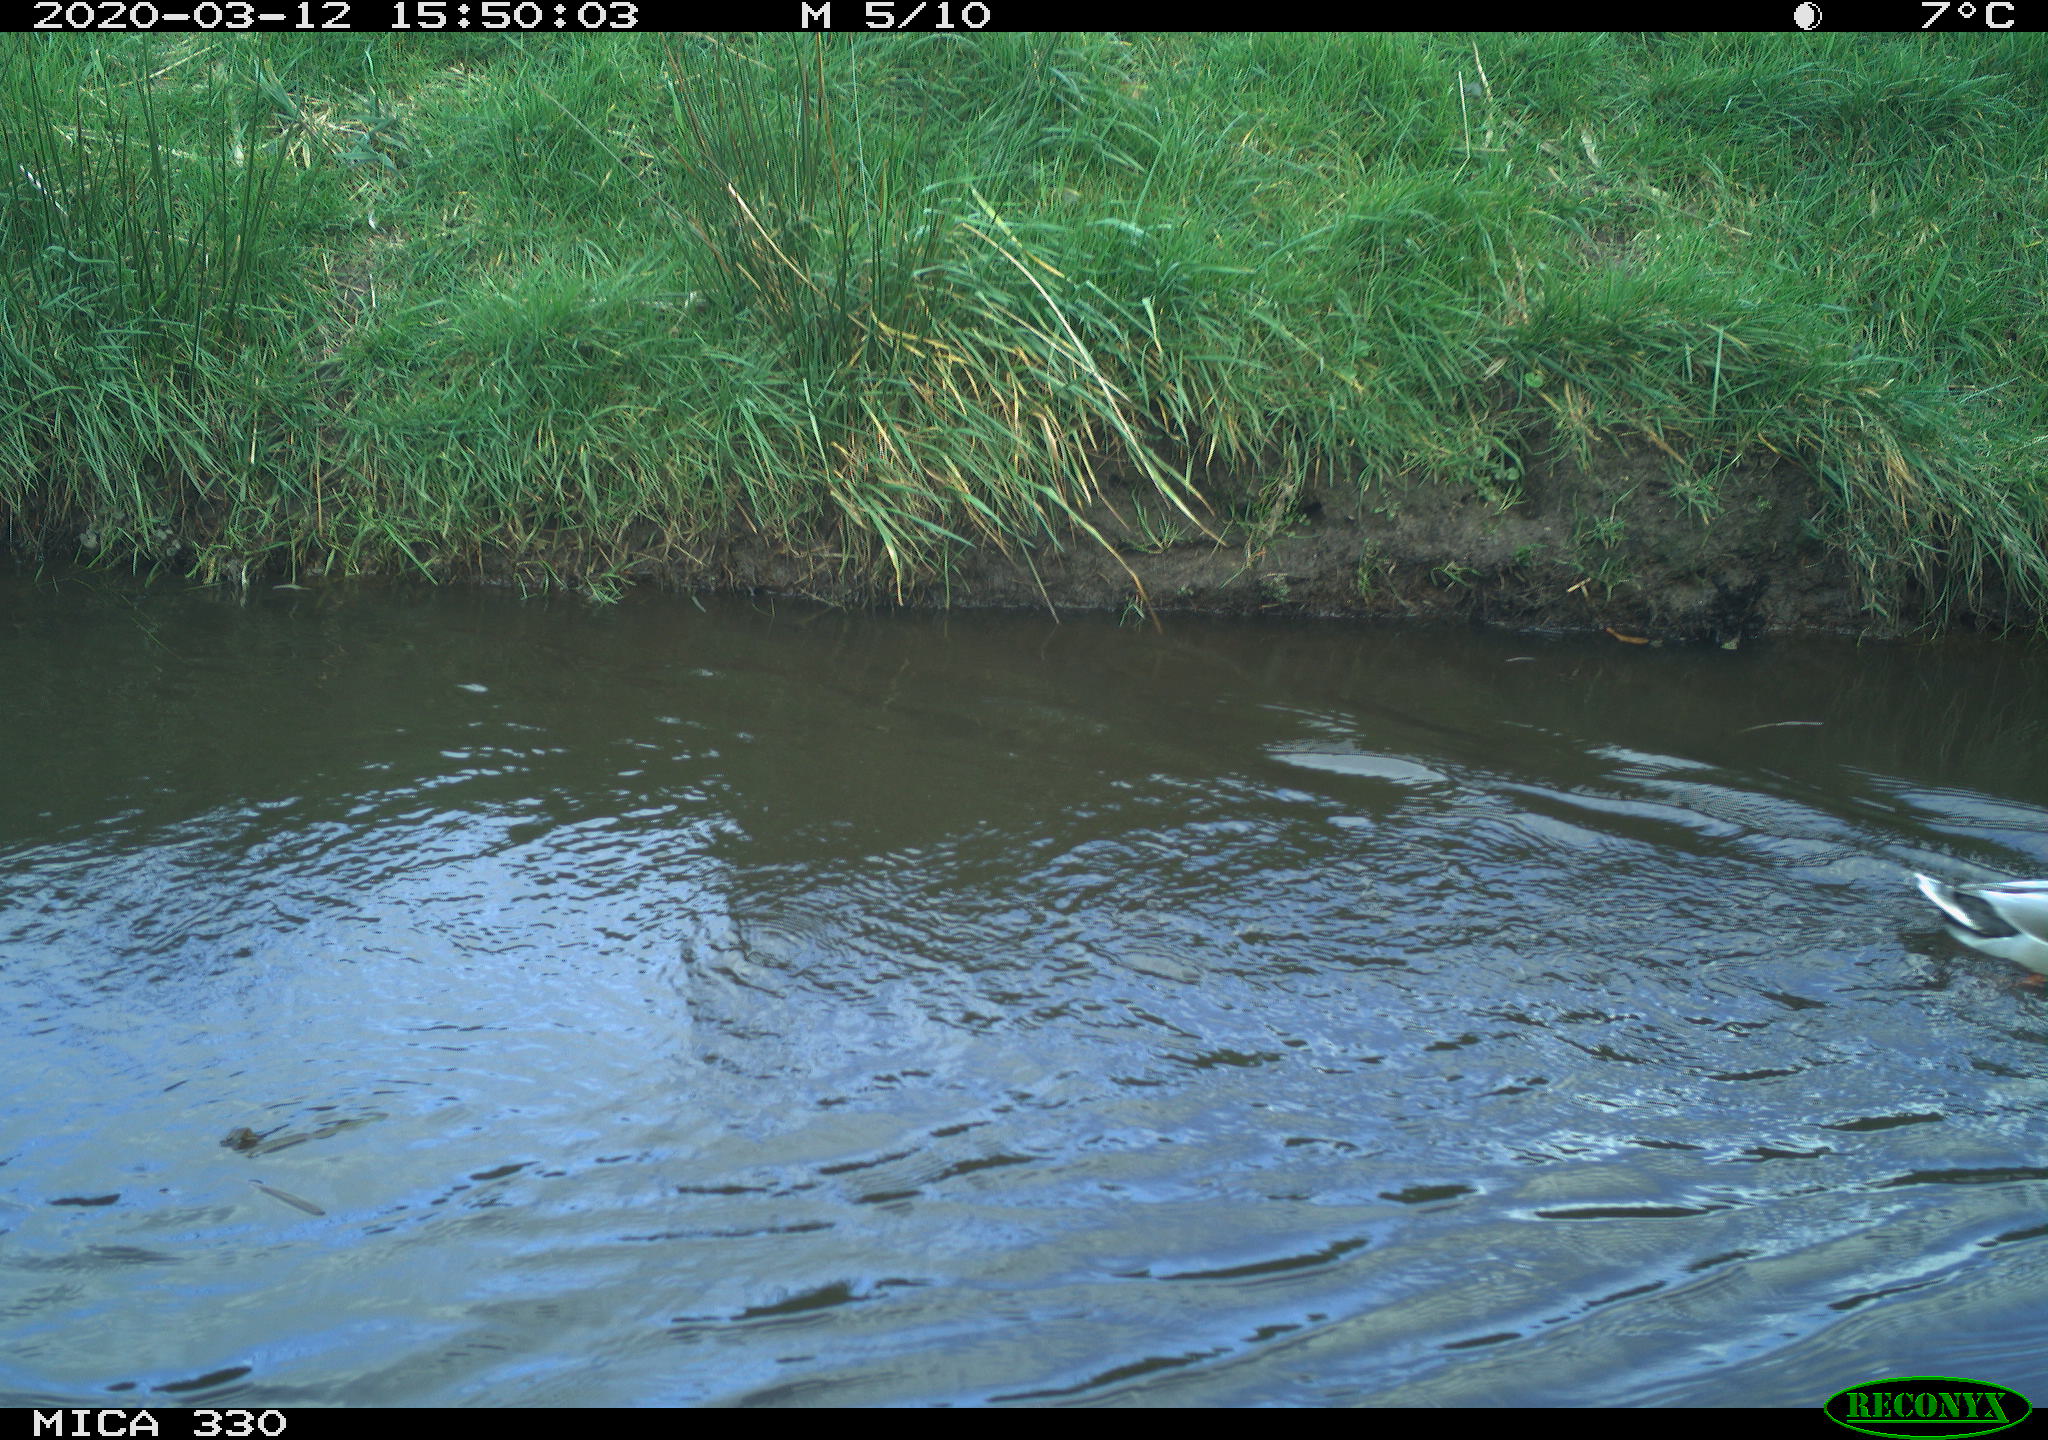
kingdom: Animalia
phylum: Chordata
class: Aves
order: Anseriformes
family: Anatidae
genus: Anas
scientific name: Anas platyrhynchos
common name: Mallard
